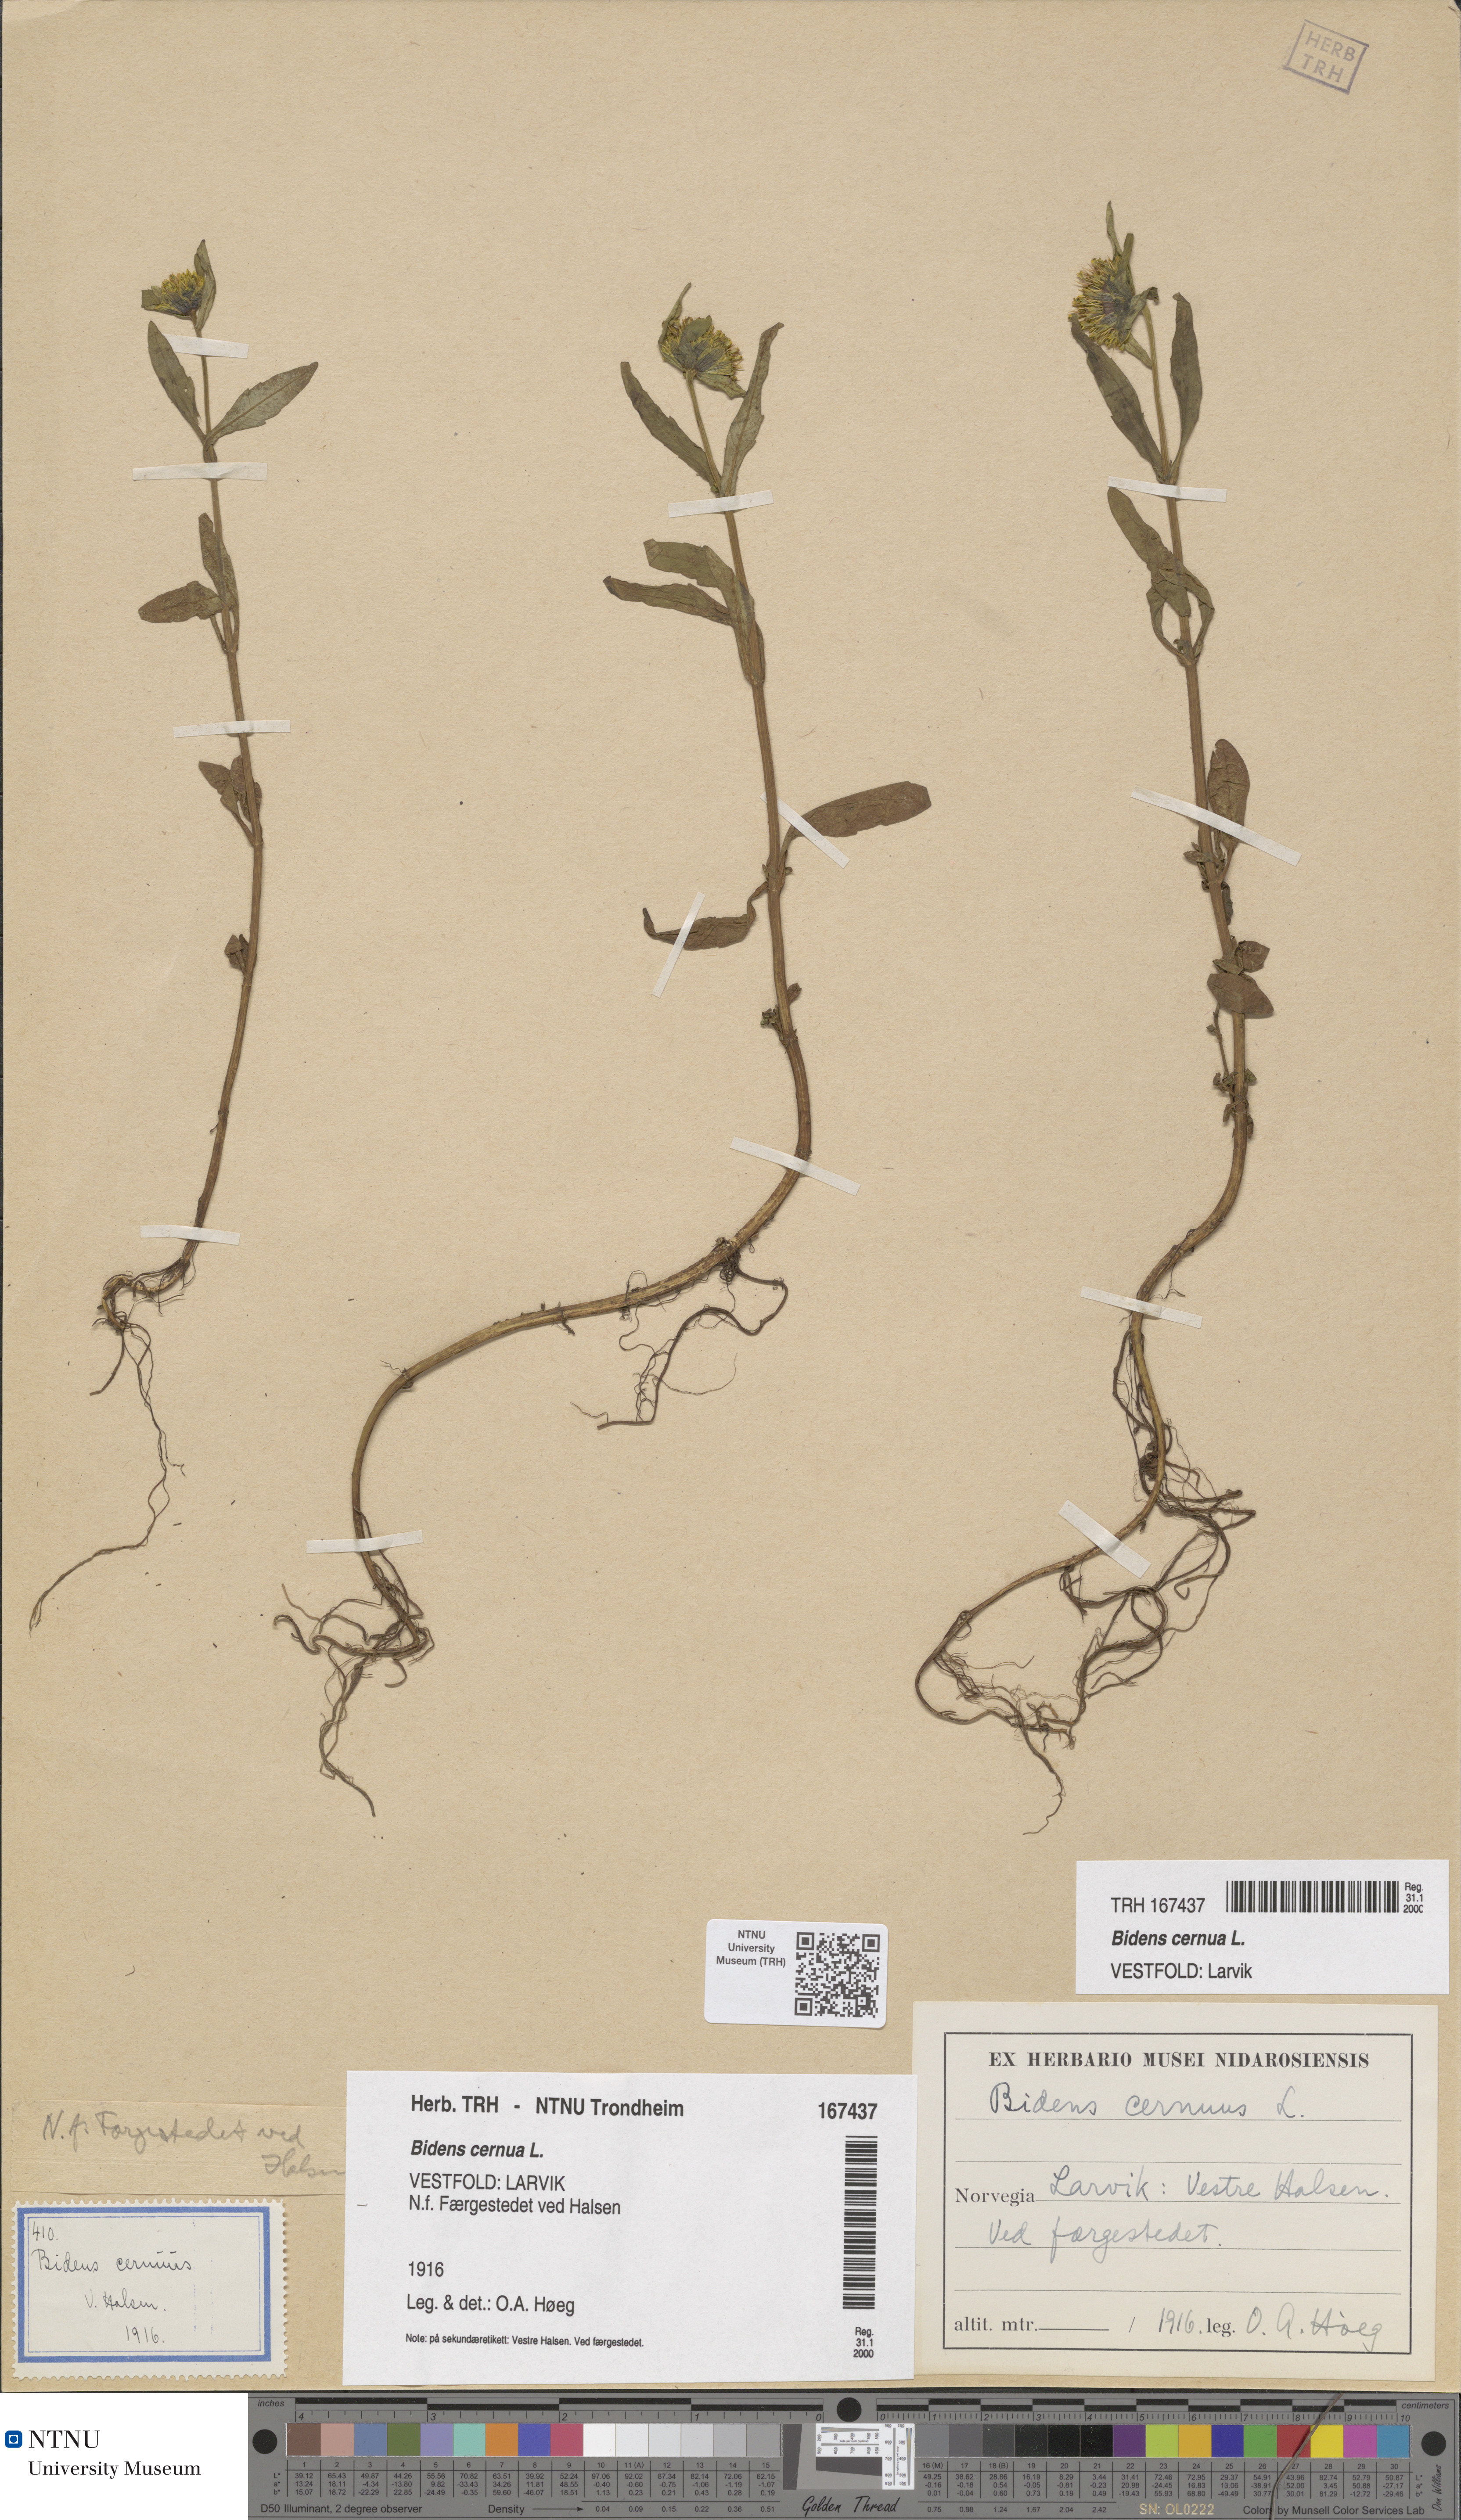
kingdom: Plantae
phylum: Tracheophyta
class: Magnoliopsida
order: Asterales
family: Asteraceae
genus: Bidens
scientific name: Bidens cernua
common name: Nodding bur-marigold
